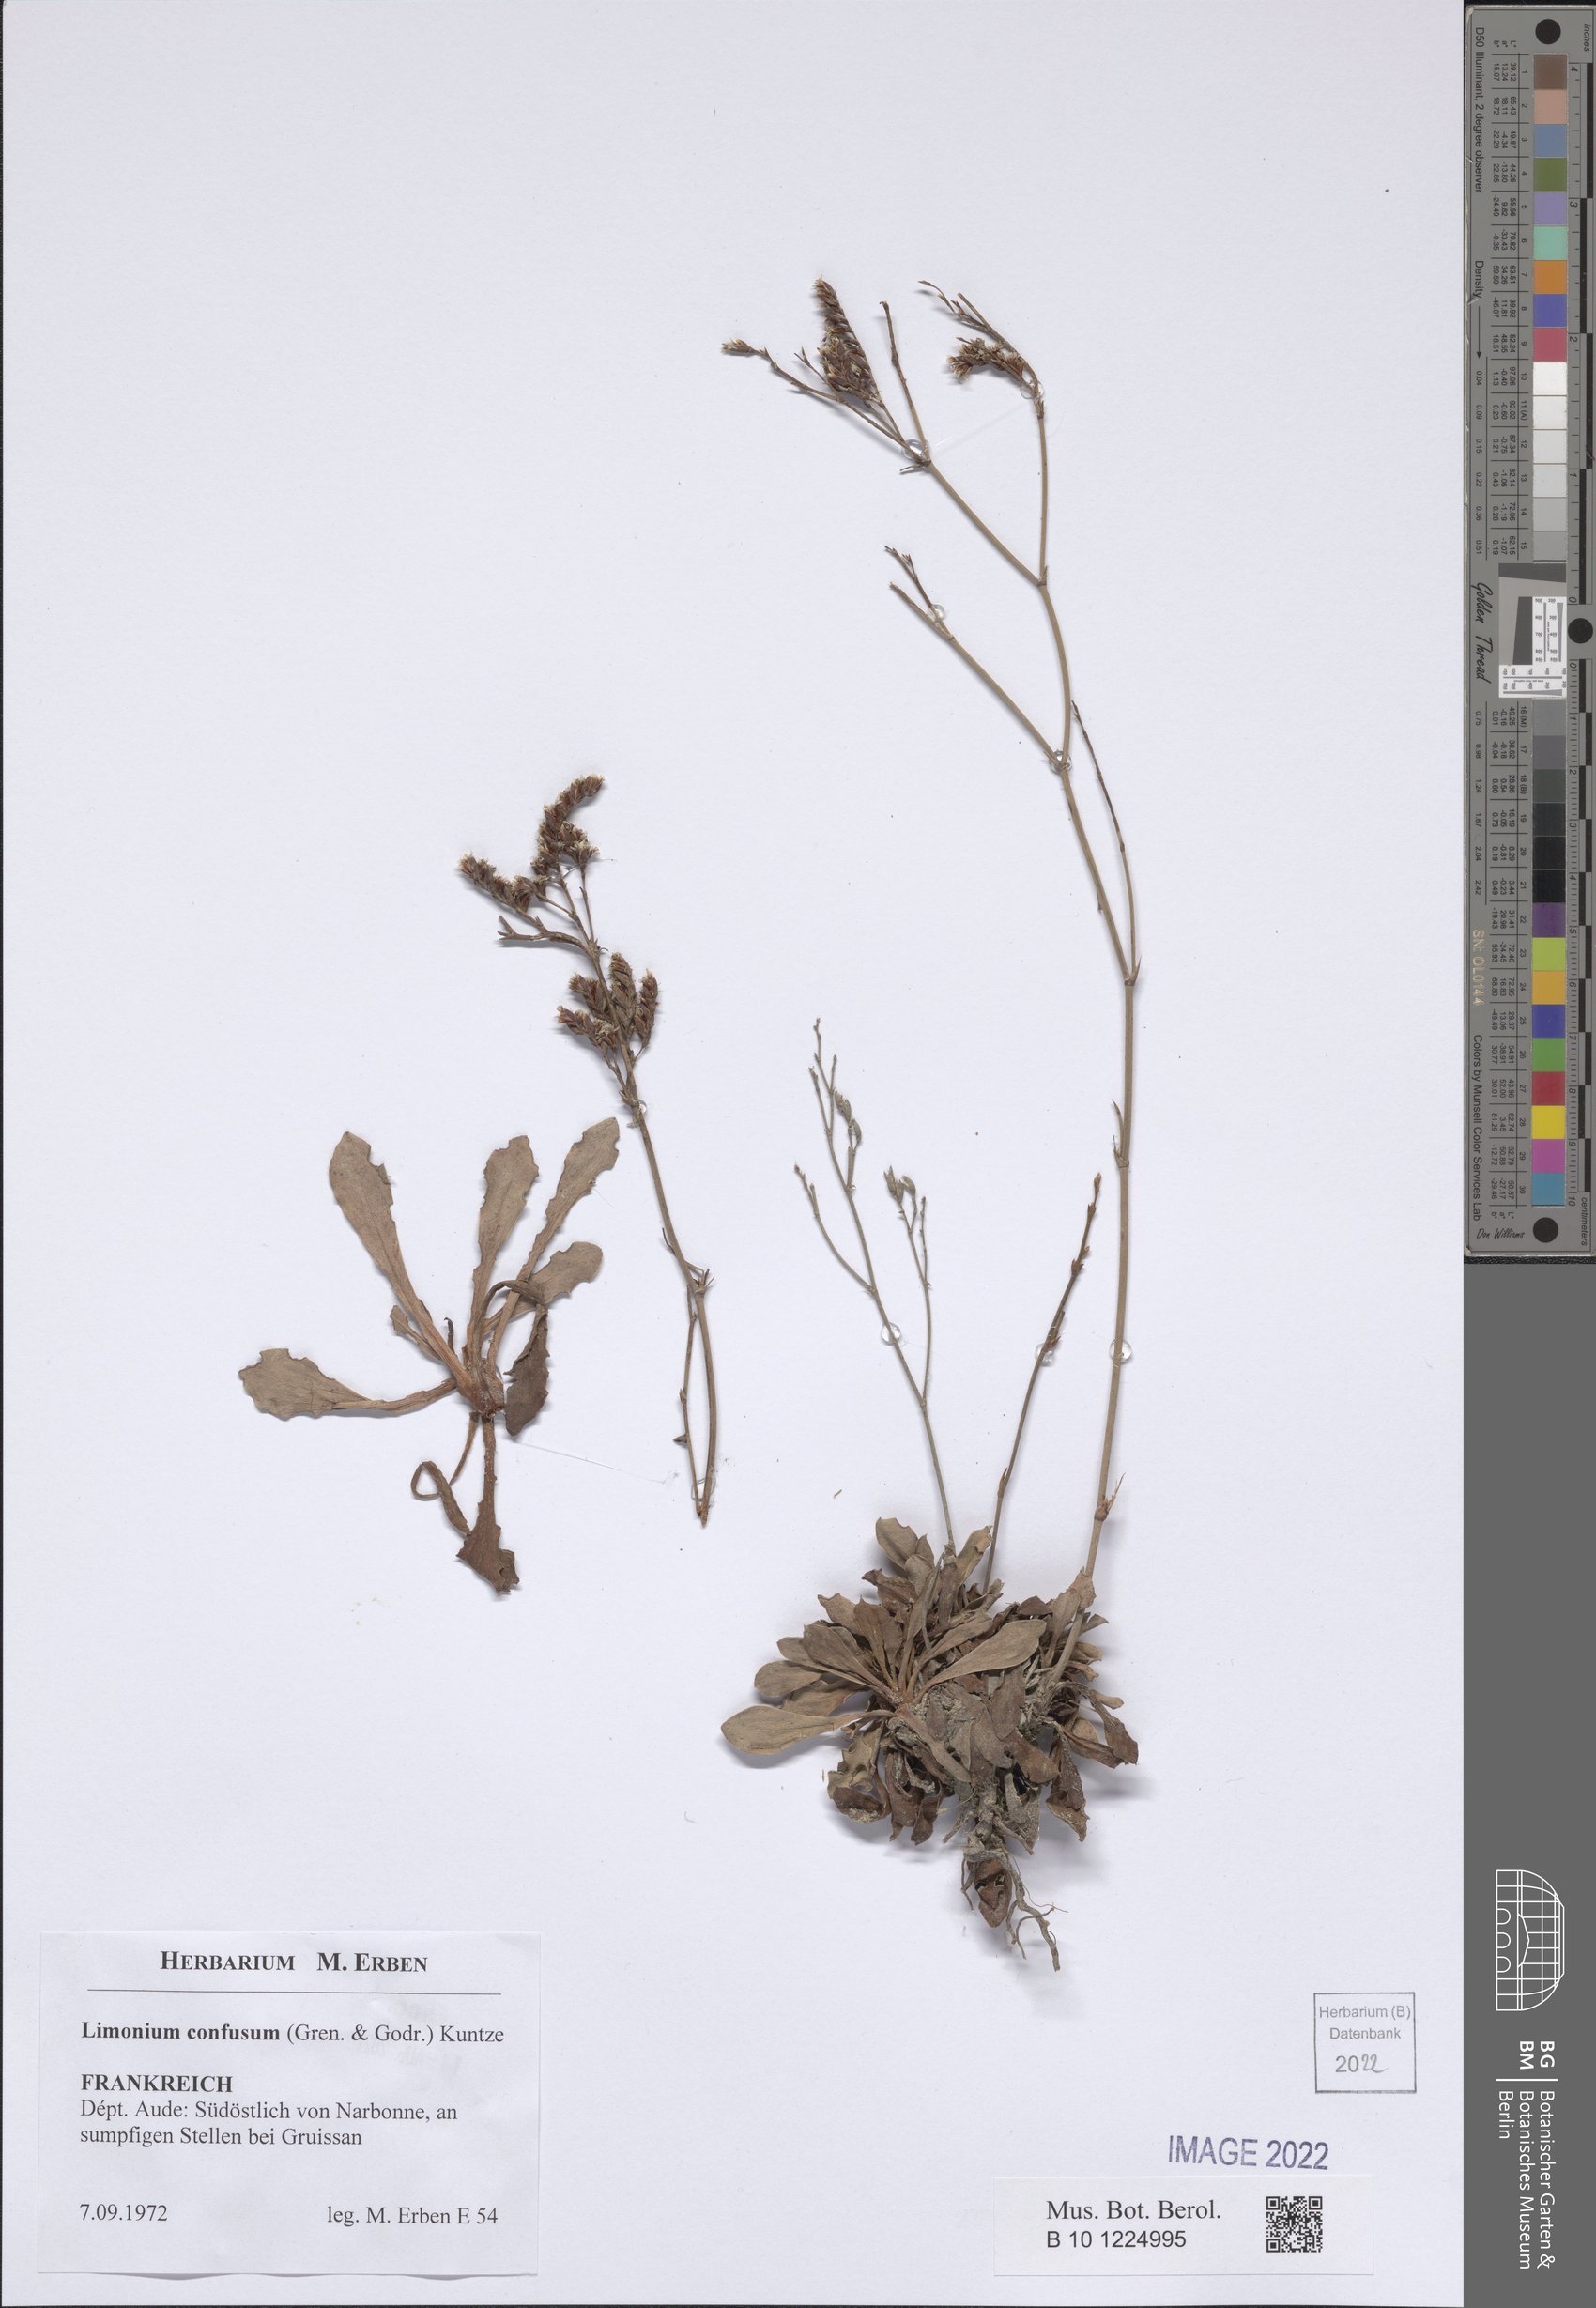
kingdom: Plantae
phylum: Tracheophyta
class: Magnoliopsida
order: Caryophyllales
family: Plumbaginaceae
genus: Limonium
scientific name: Limonium confusum
